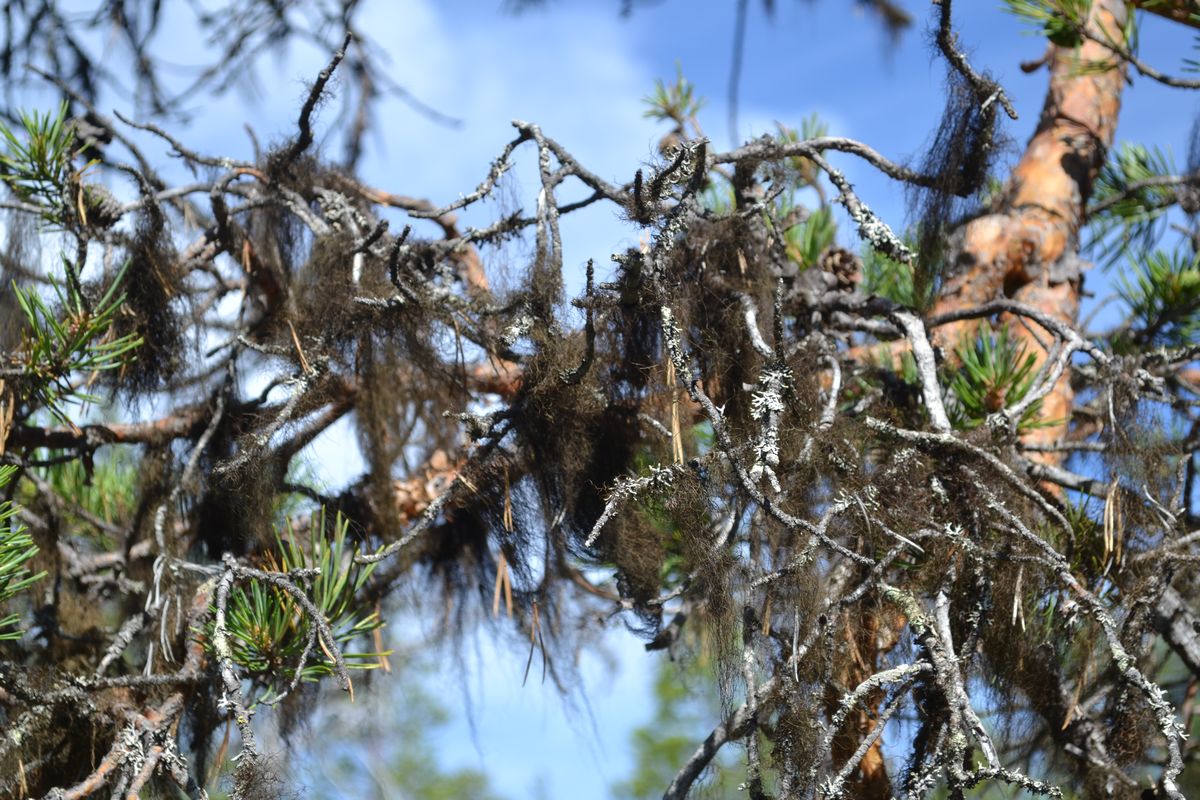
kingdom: Fungi
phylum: Ascomycota
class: Lecanoromycetes
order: Lecanorales
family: Parmeliaceae
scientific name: Parmeliaceae
